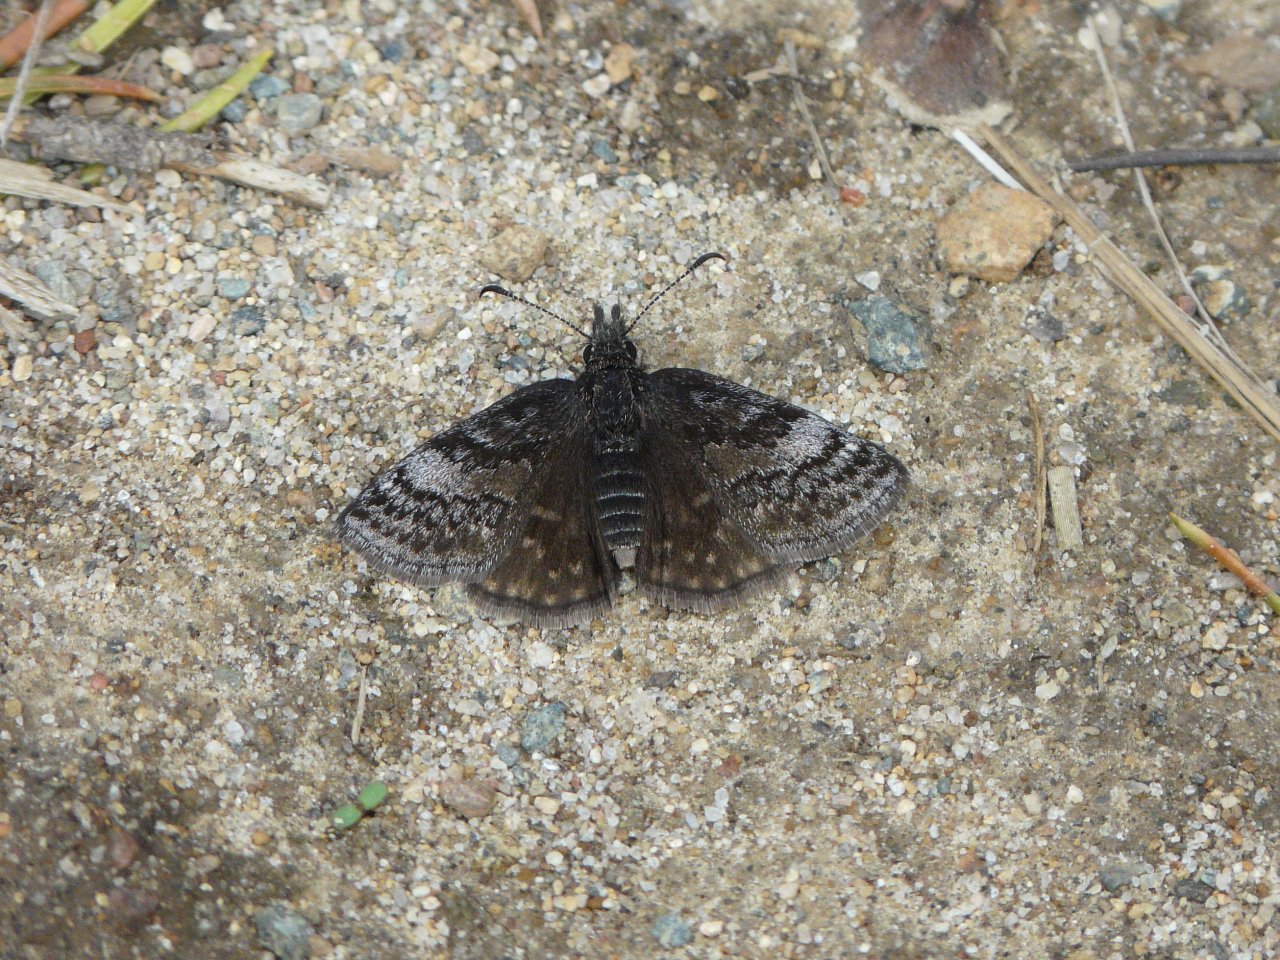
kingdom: Animalia
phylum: Arthropoda
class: Insecta
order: Lepidoptera
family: Hesperiidae
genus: Erynnis
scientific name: Erynnis icelus
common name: Dreamy Duskywing
